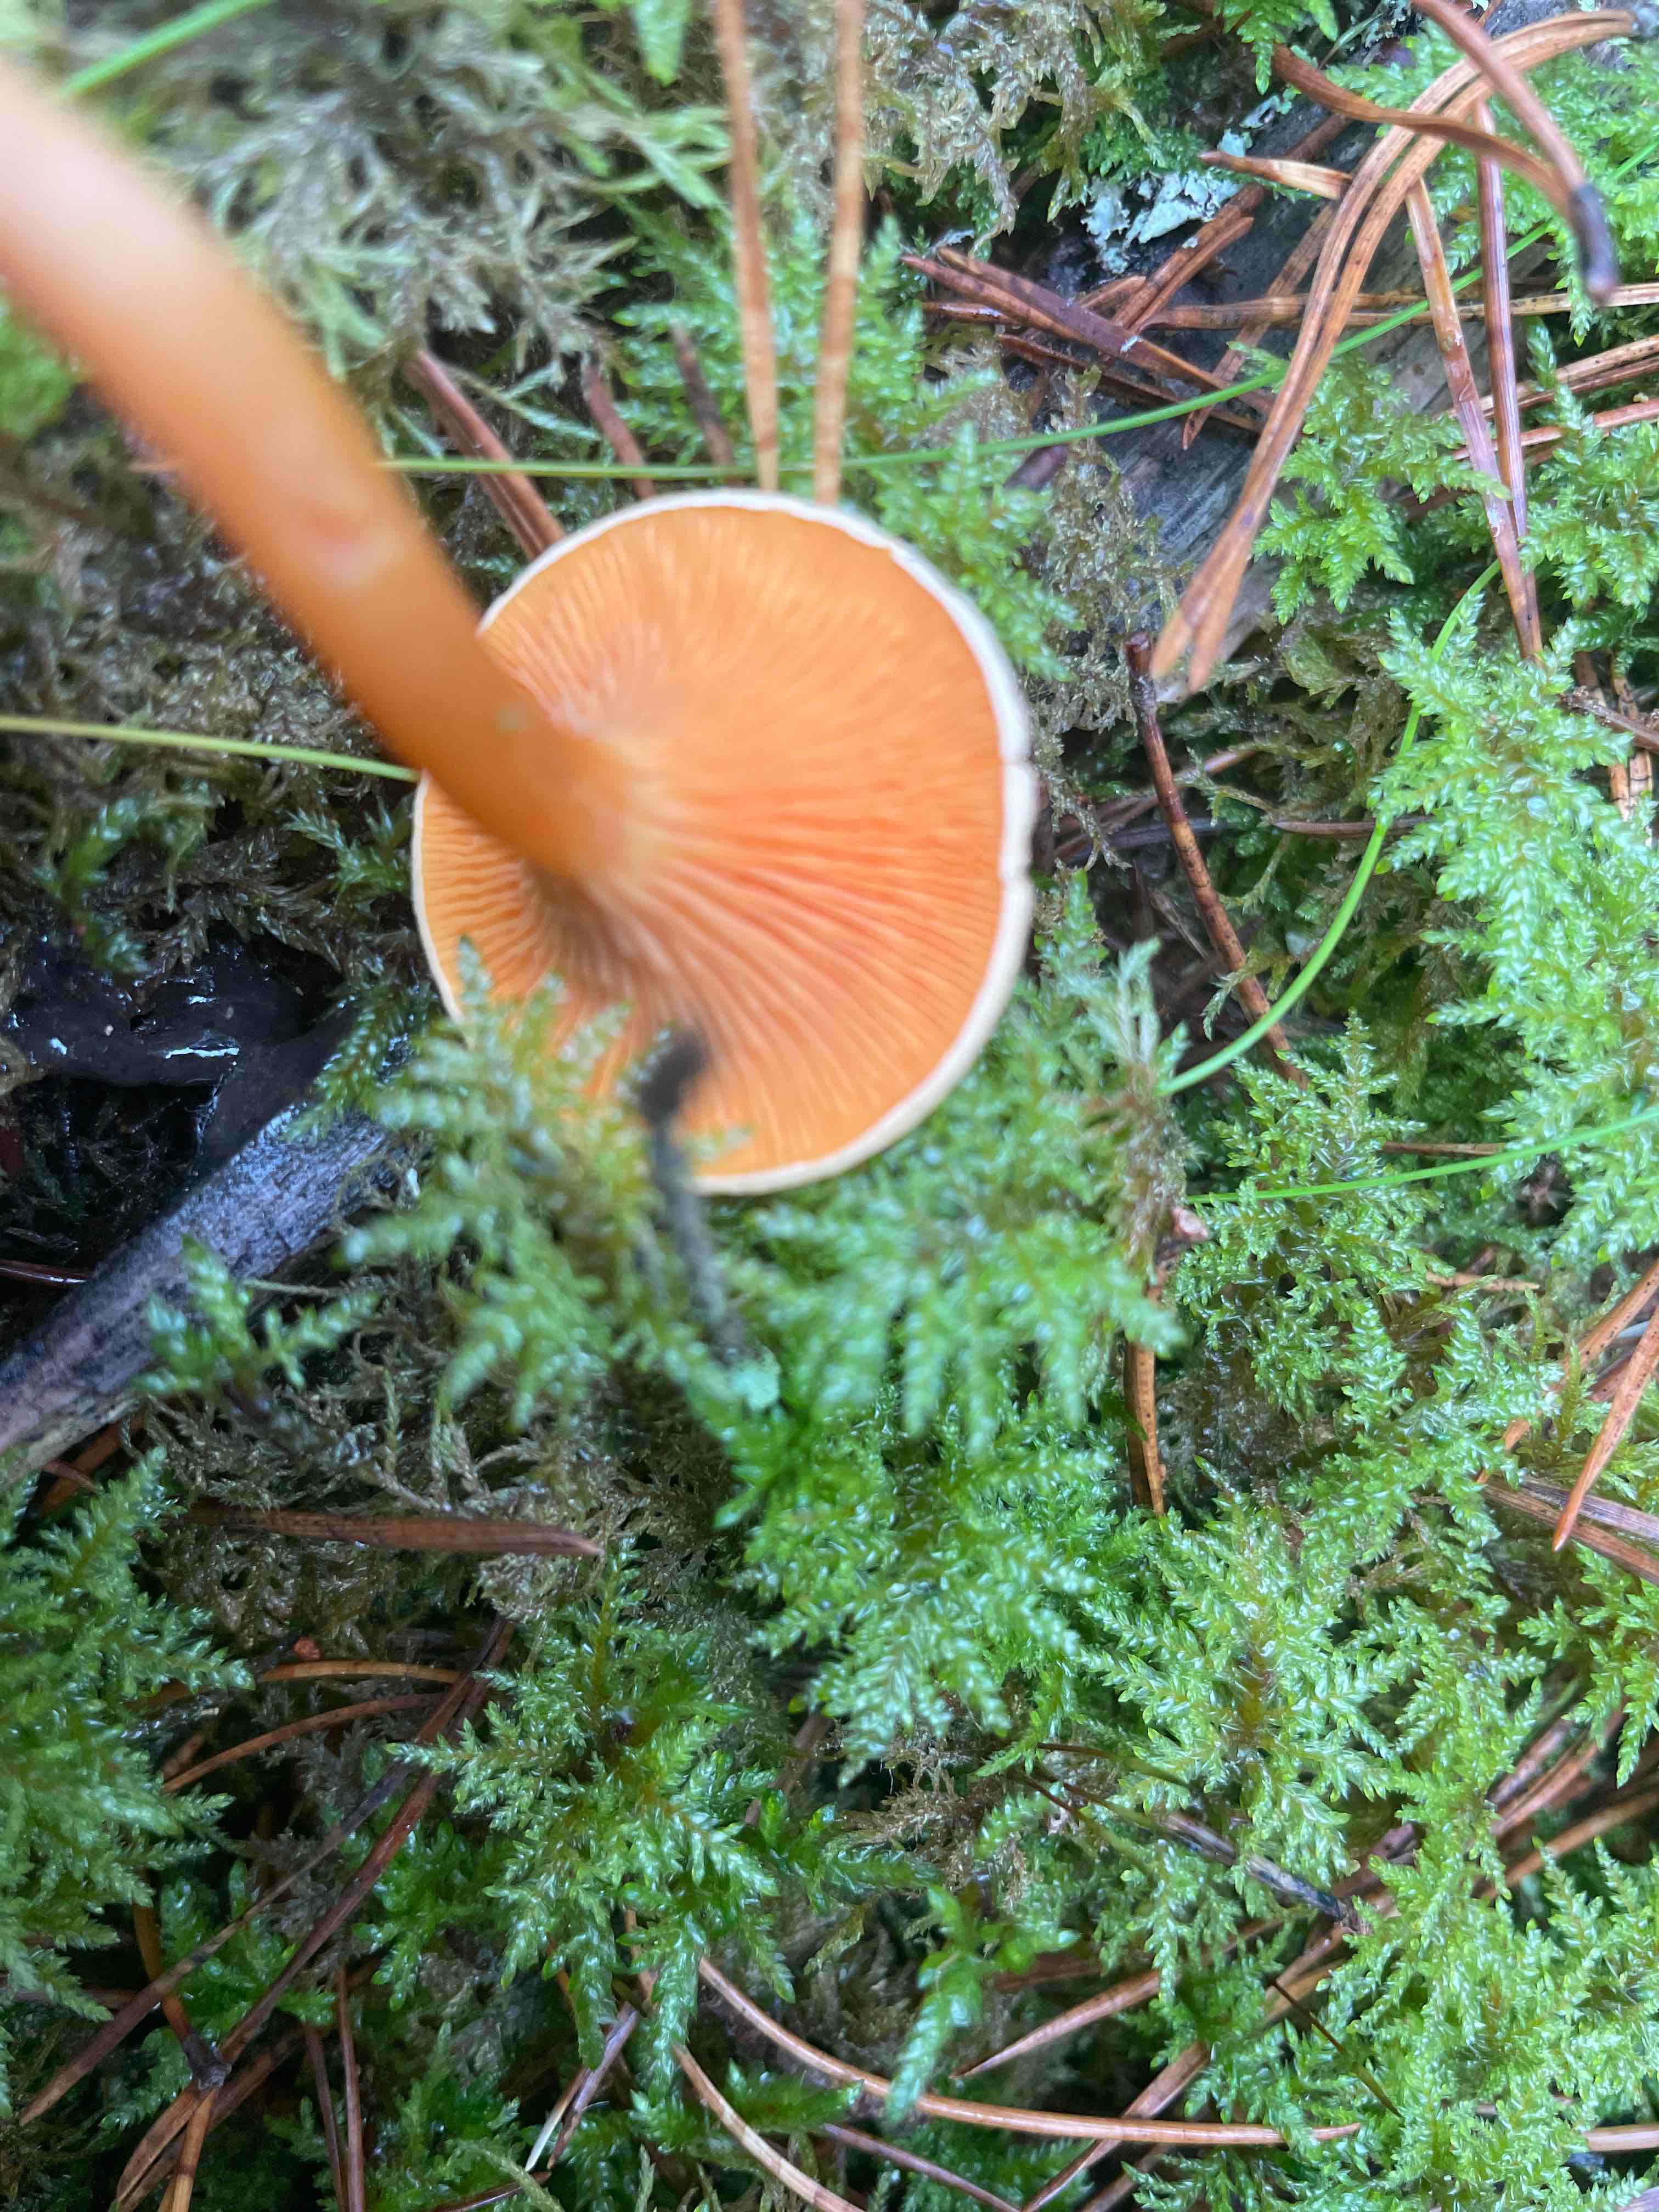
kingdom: Fungi
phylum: Basidiomycota
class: Agaricomycetes
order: Boletales
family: Hygrophoropsidaceae
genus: Hygrophoropsis
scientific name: Hygrophoropsis aurantiaca
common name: almindelig orangekantarel
